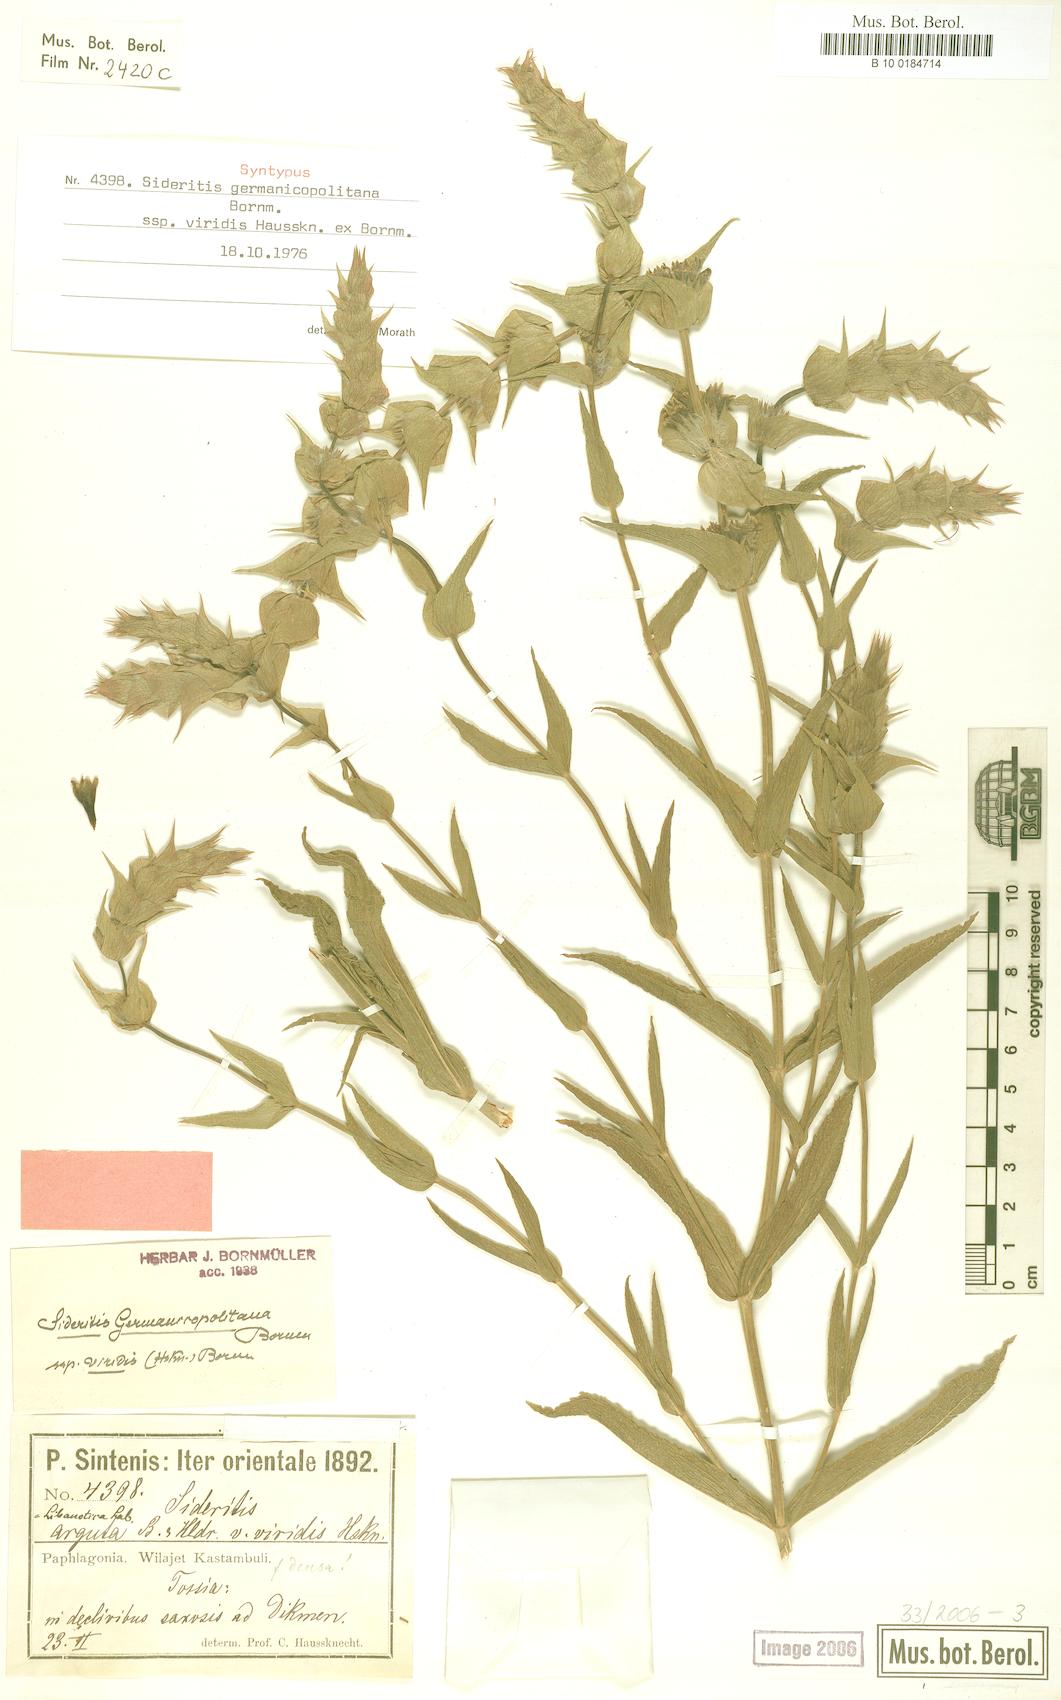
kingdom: Plantae
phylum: Tracheophyta
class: Magnoliopsida
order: Lamiales
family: Lamiaceae
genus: Sideritis
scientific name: Sideritis germanicopolitana
